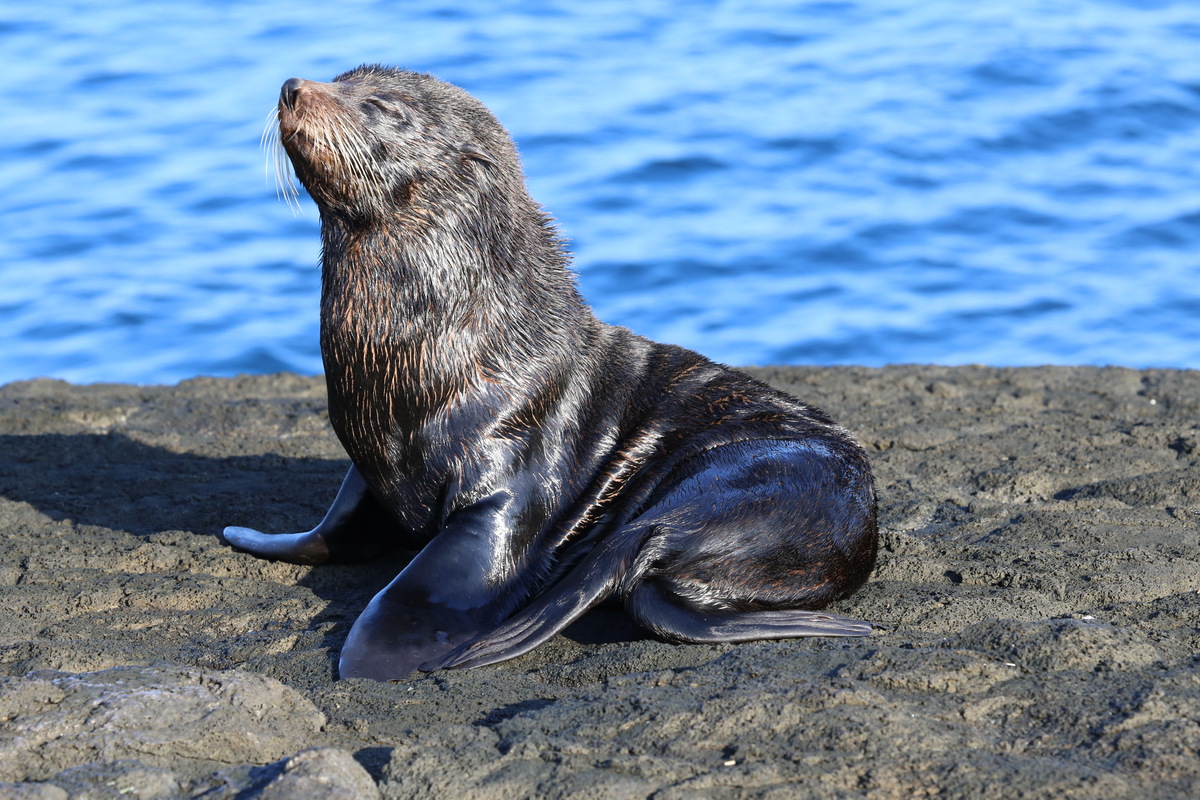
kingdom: Animalia
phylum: Chordata
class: Mammalia
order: Carnivora
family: Otariidae
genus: Arctocephalus
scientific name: Arctocephalus galapagoensis
